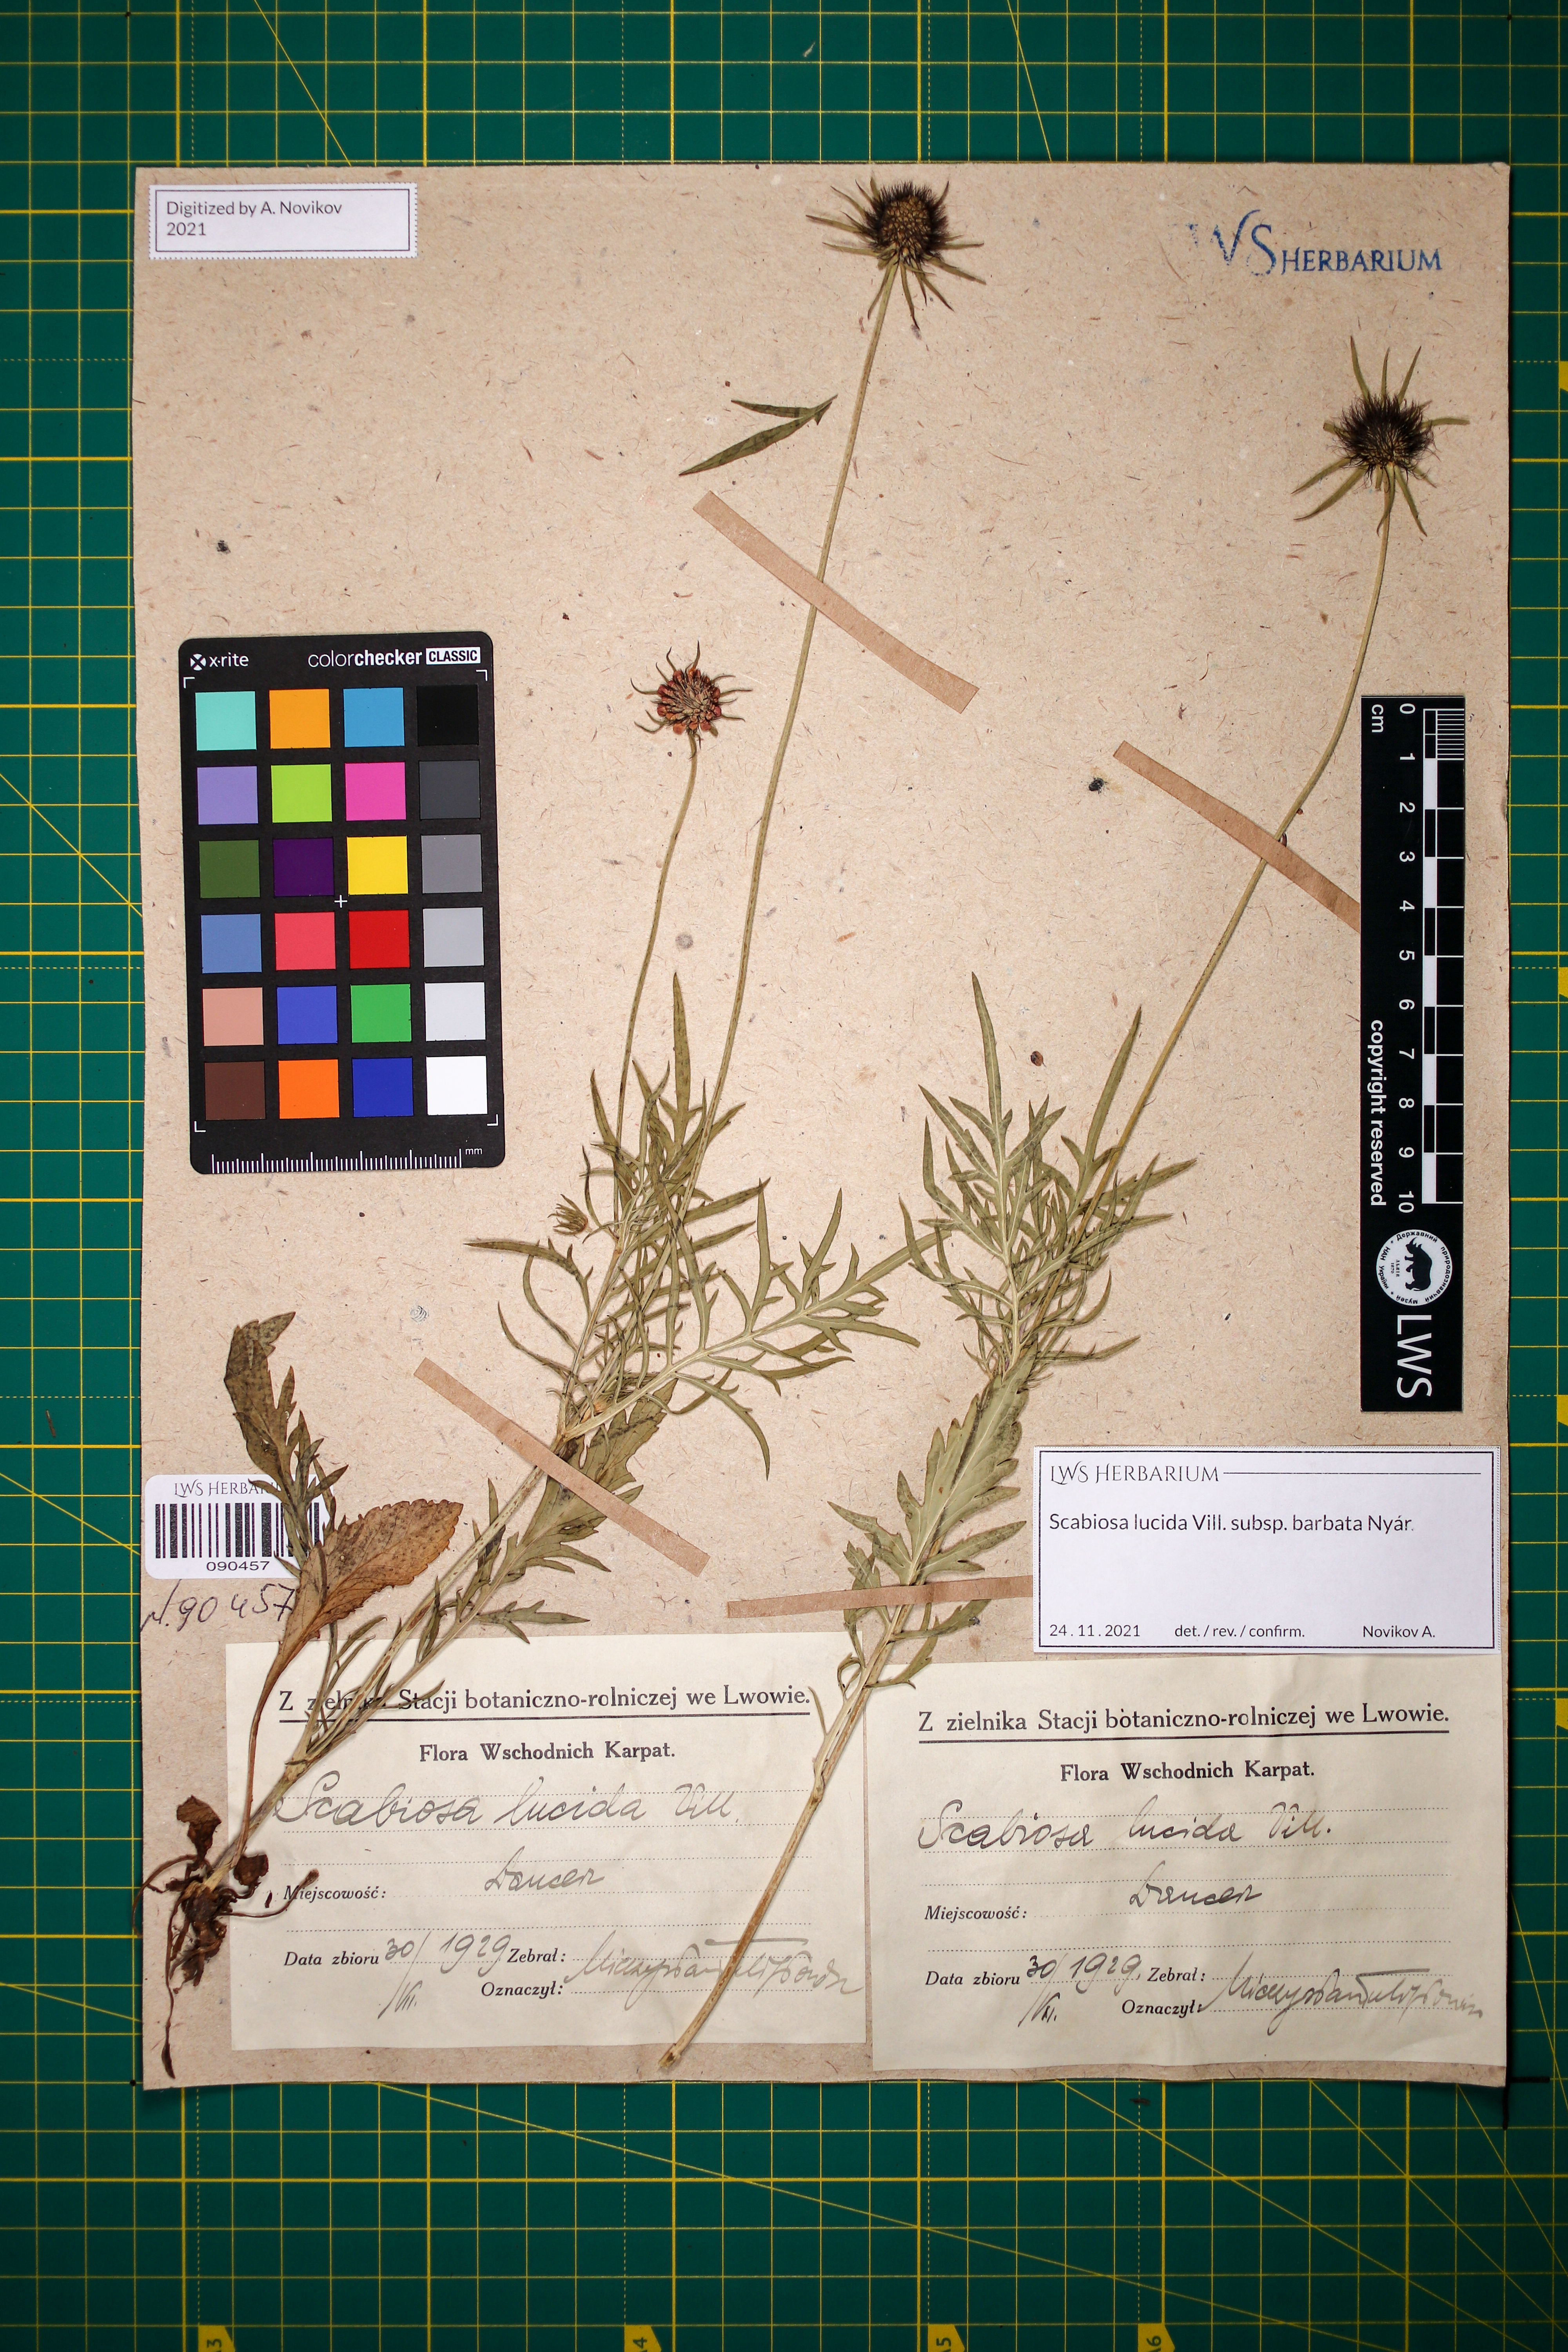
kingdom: Plantae
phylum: Tracheophyta
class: Magnoliopsida
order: Dipsacales
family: Caprifoliaceae
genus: Scabiosa
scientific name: Scabiosa lucida
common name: Shining scabious
